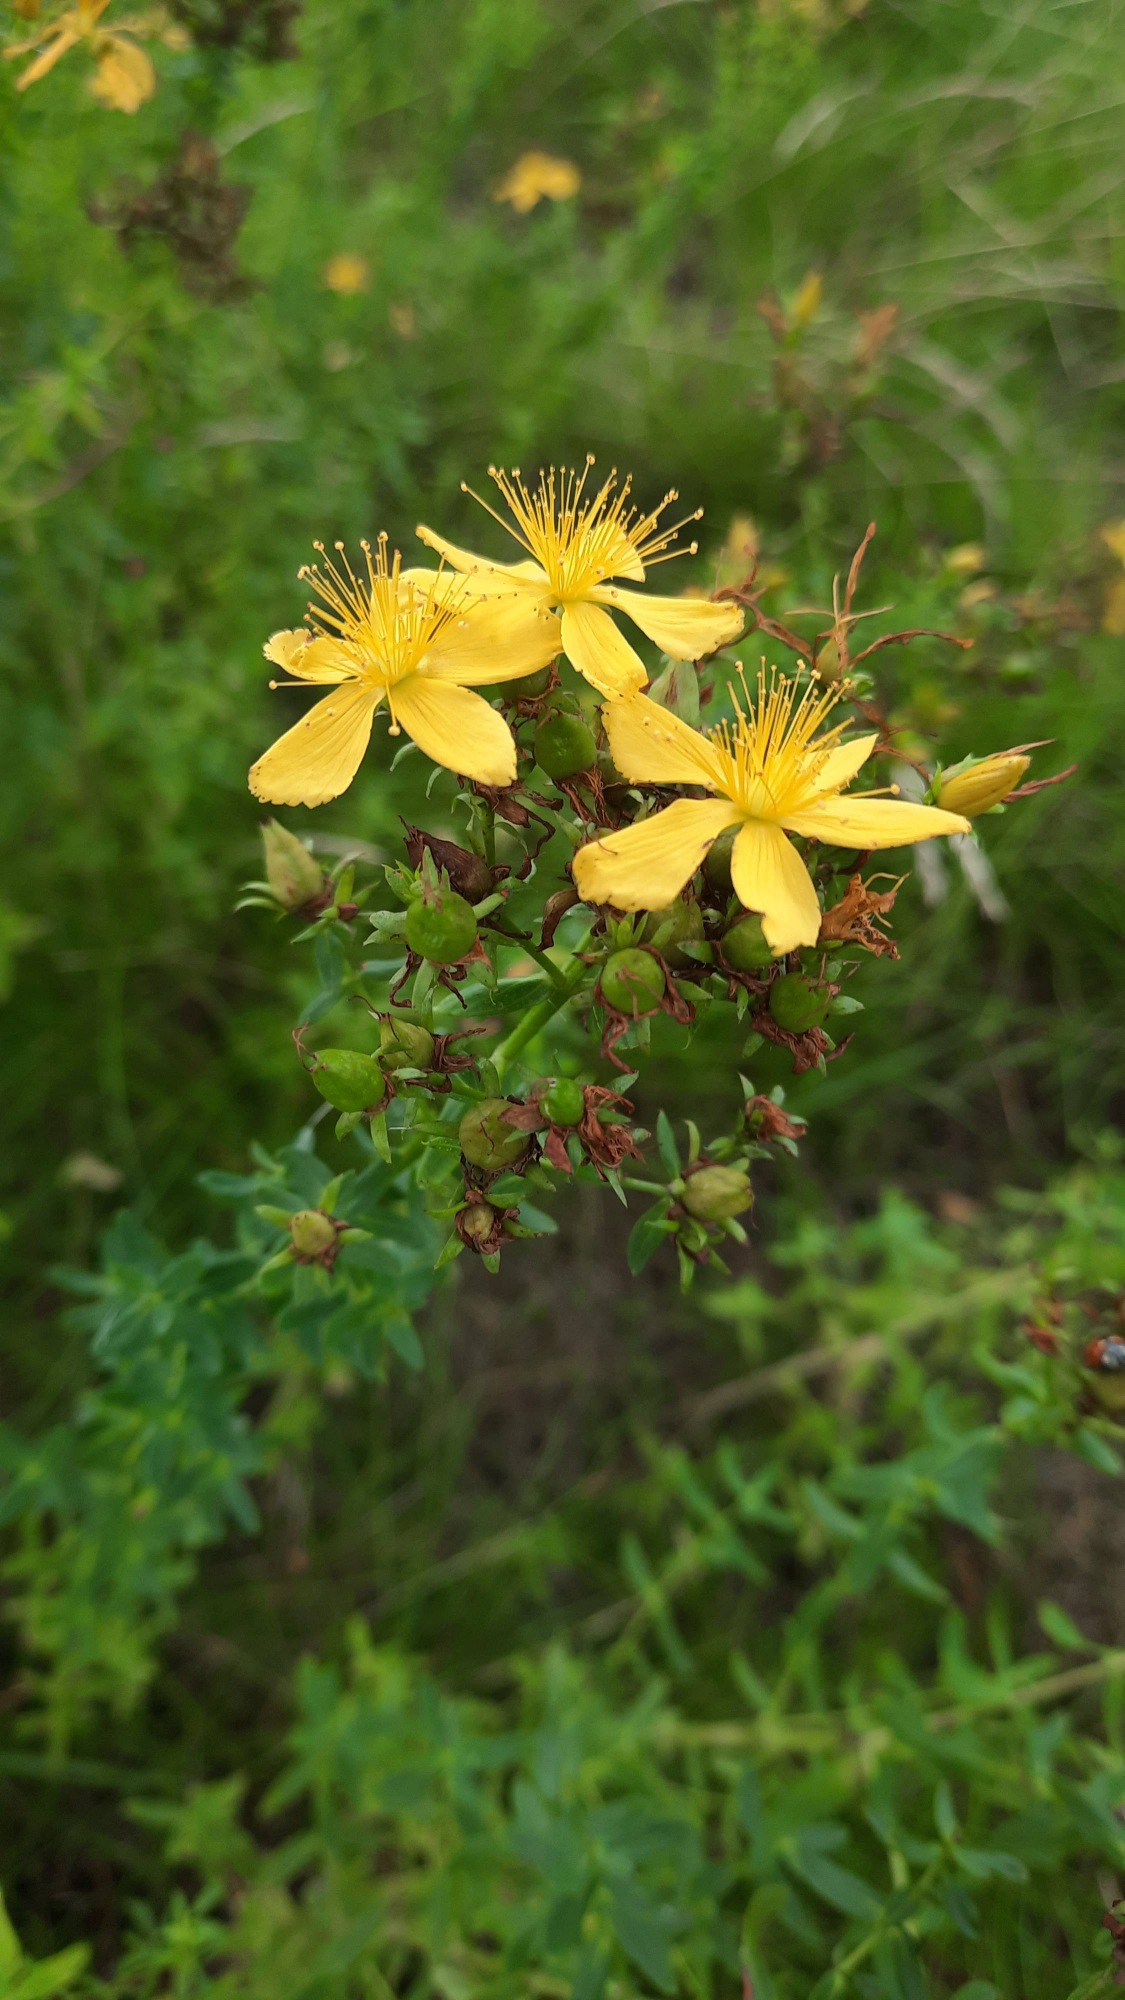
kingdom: Plantae
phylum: Tracheophyta
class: Magnoliopsida
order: Malpighiales
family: Hypericaceae
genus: Hypericum
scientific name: Hypericum perforatum
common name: Prikbladet perikon
